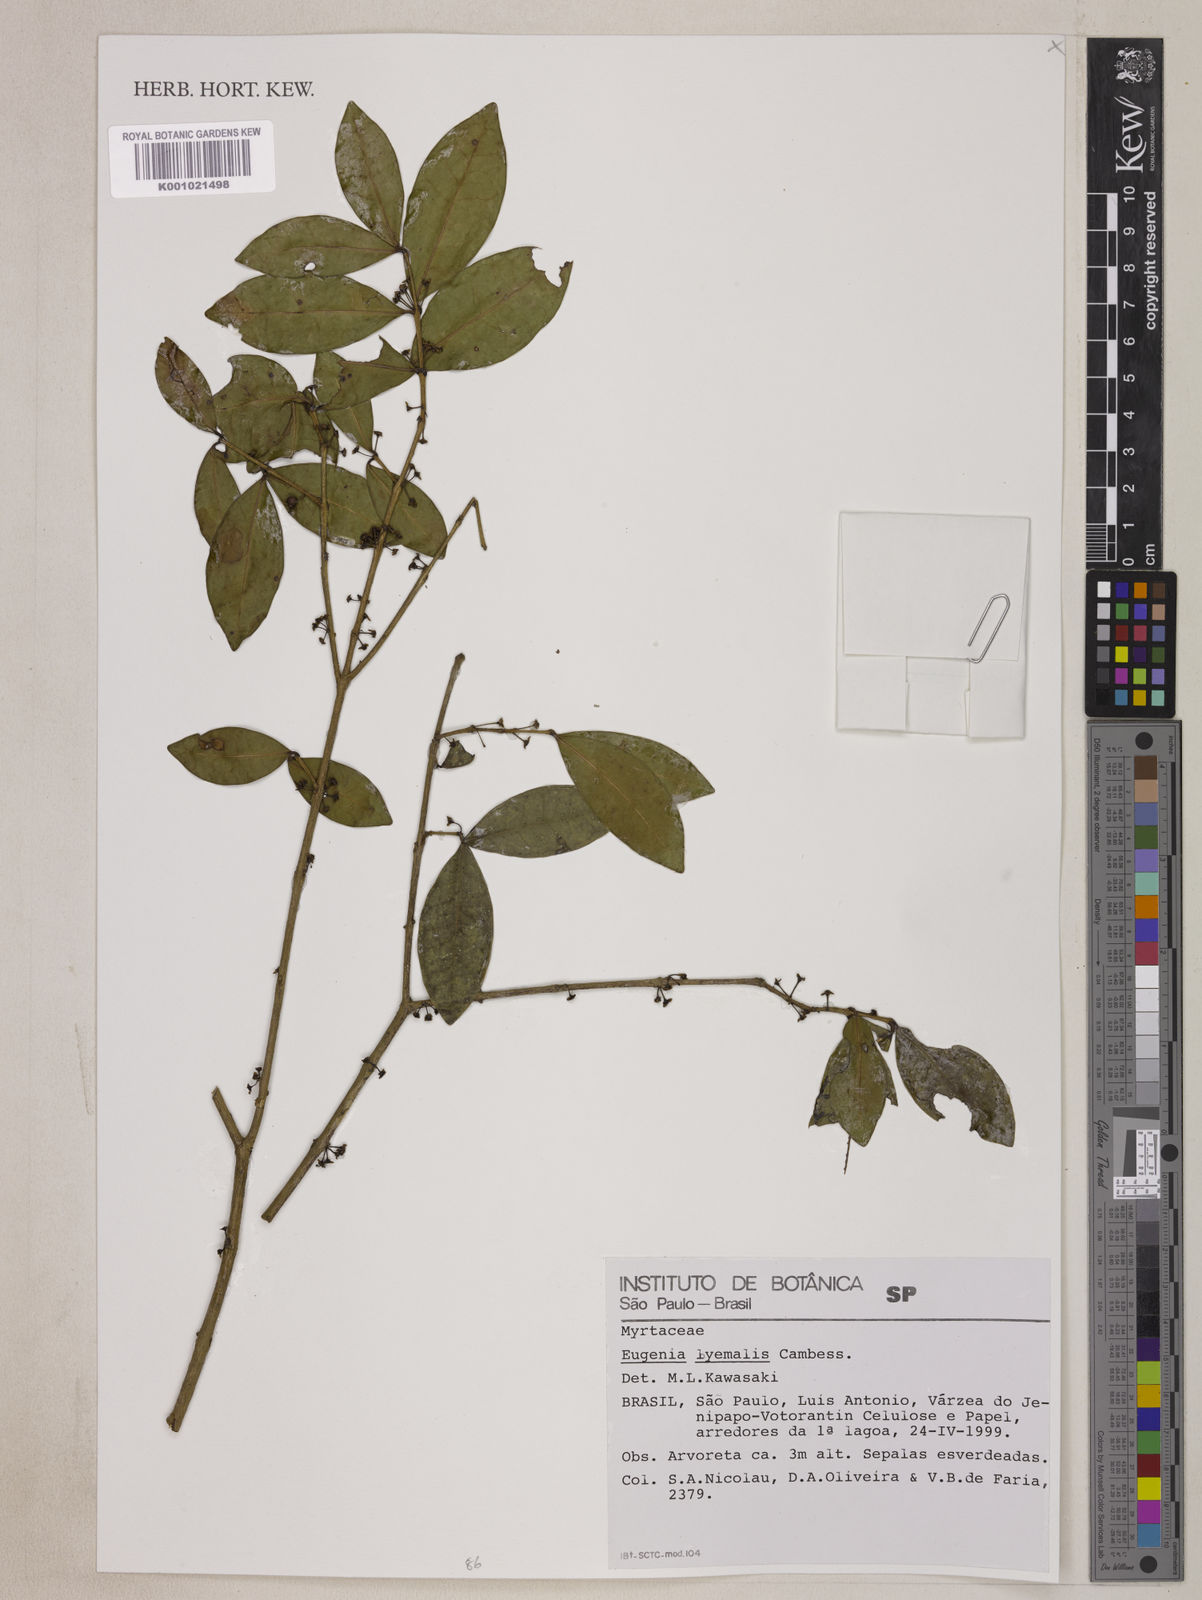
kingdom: Plantae
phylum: Tracheophyta
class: Magnoliopsida
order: Myrtales
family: Myrtaceae
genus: Eugenia
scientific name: Eugenia hiemalis
